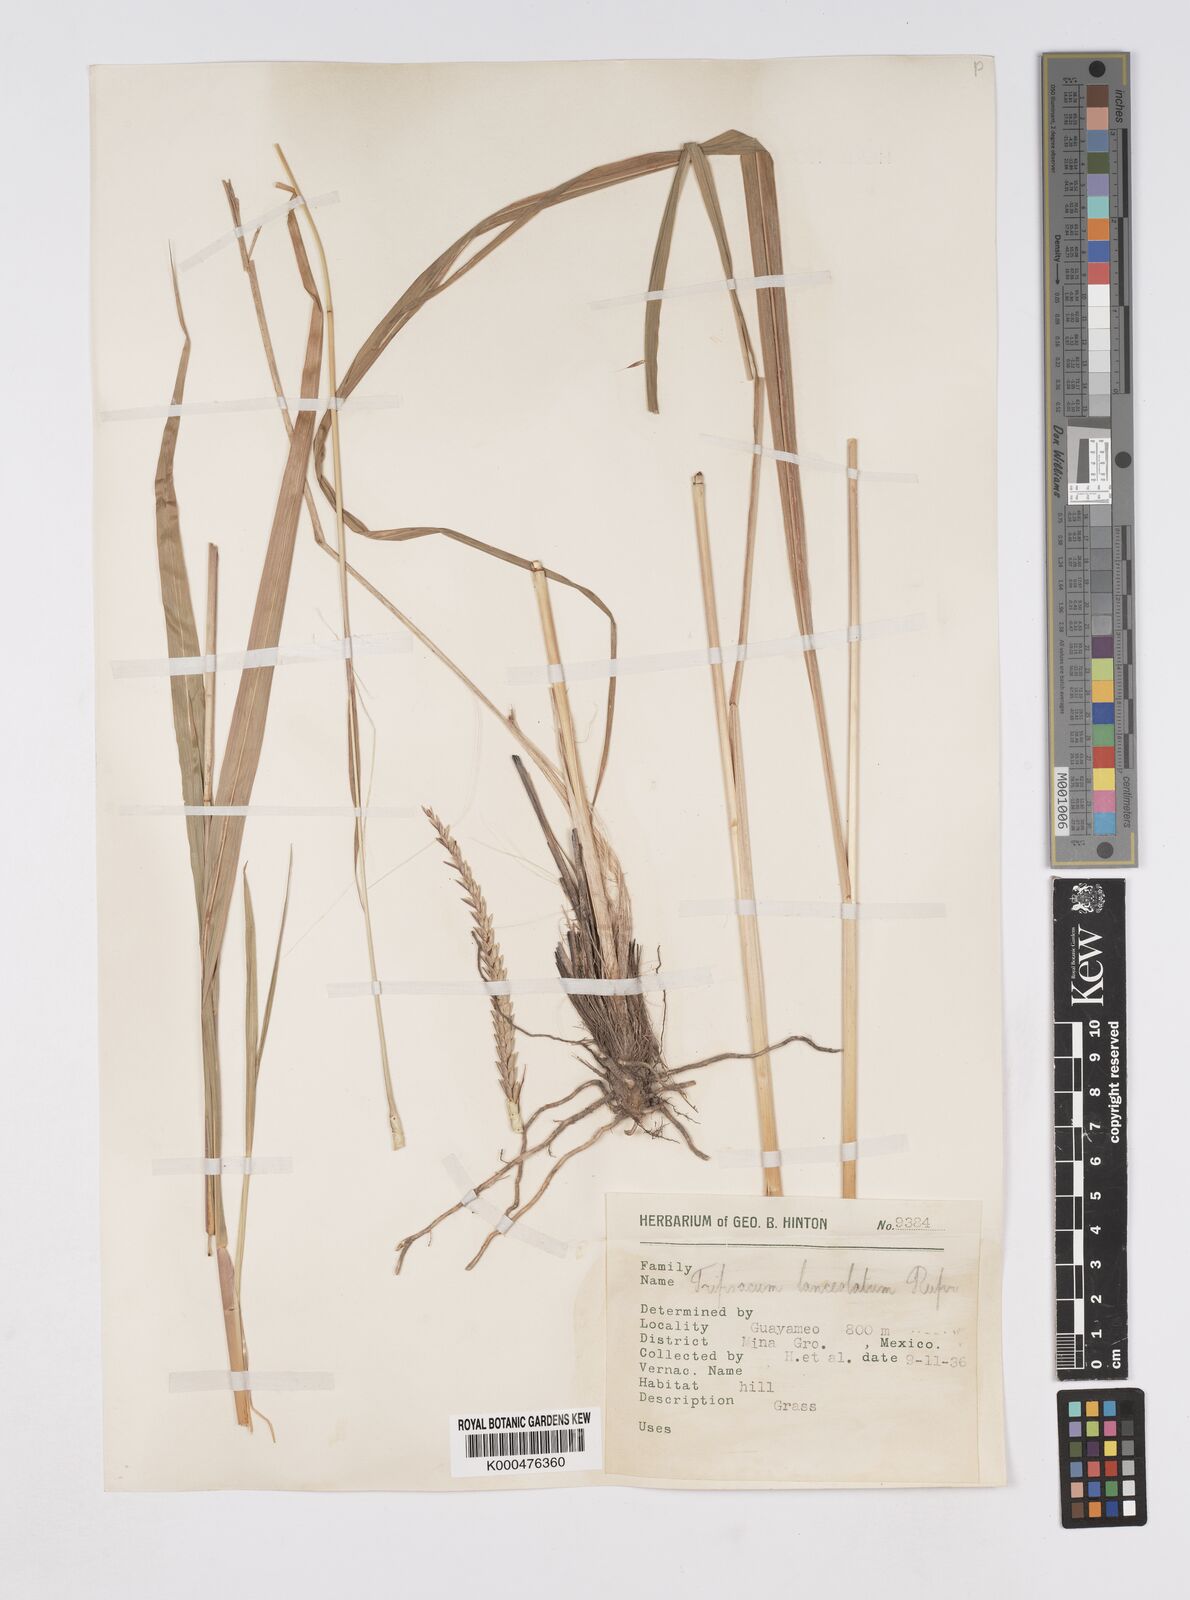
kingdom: Plantae
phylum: Tracheophyta
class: Liliopsida
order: Poales
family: Poaceae
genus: Tripsacum
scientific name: Tripsacum lanceolatum
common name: Mexican gama grass
